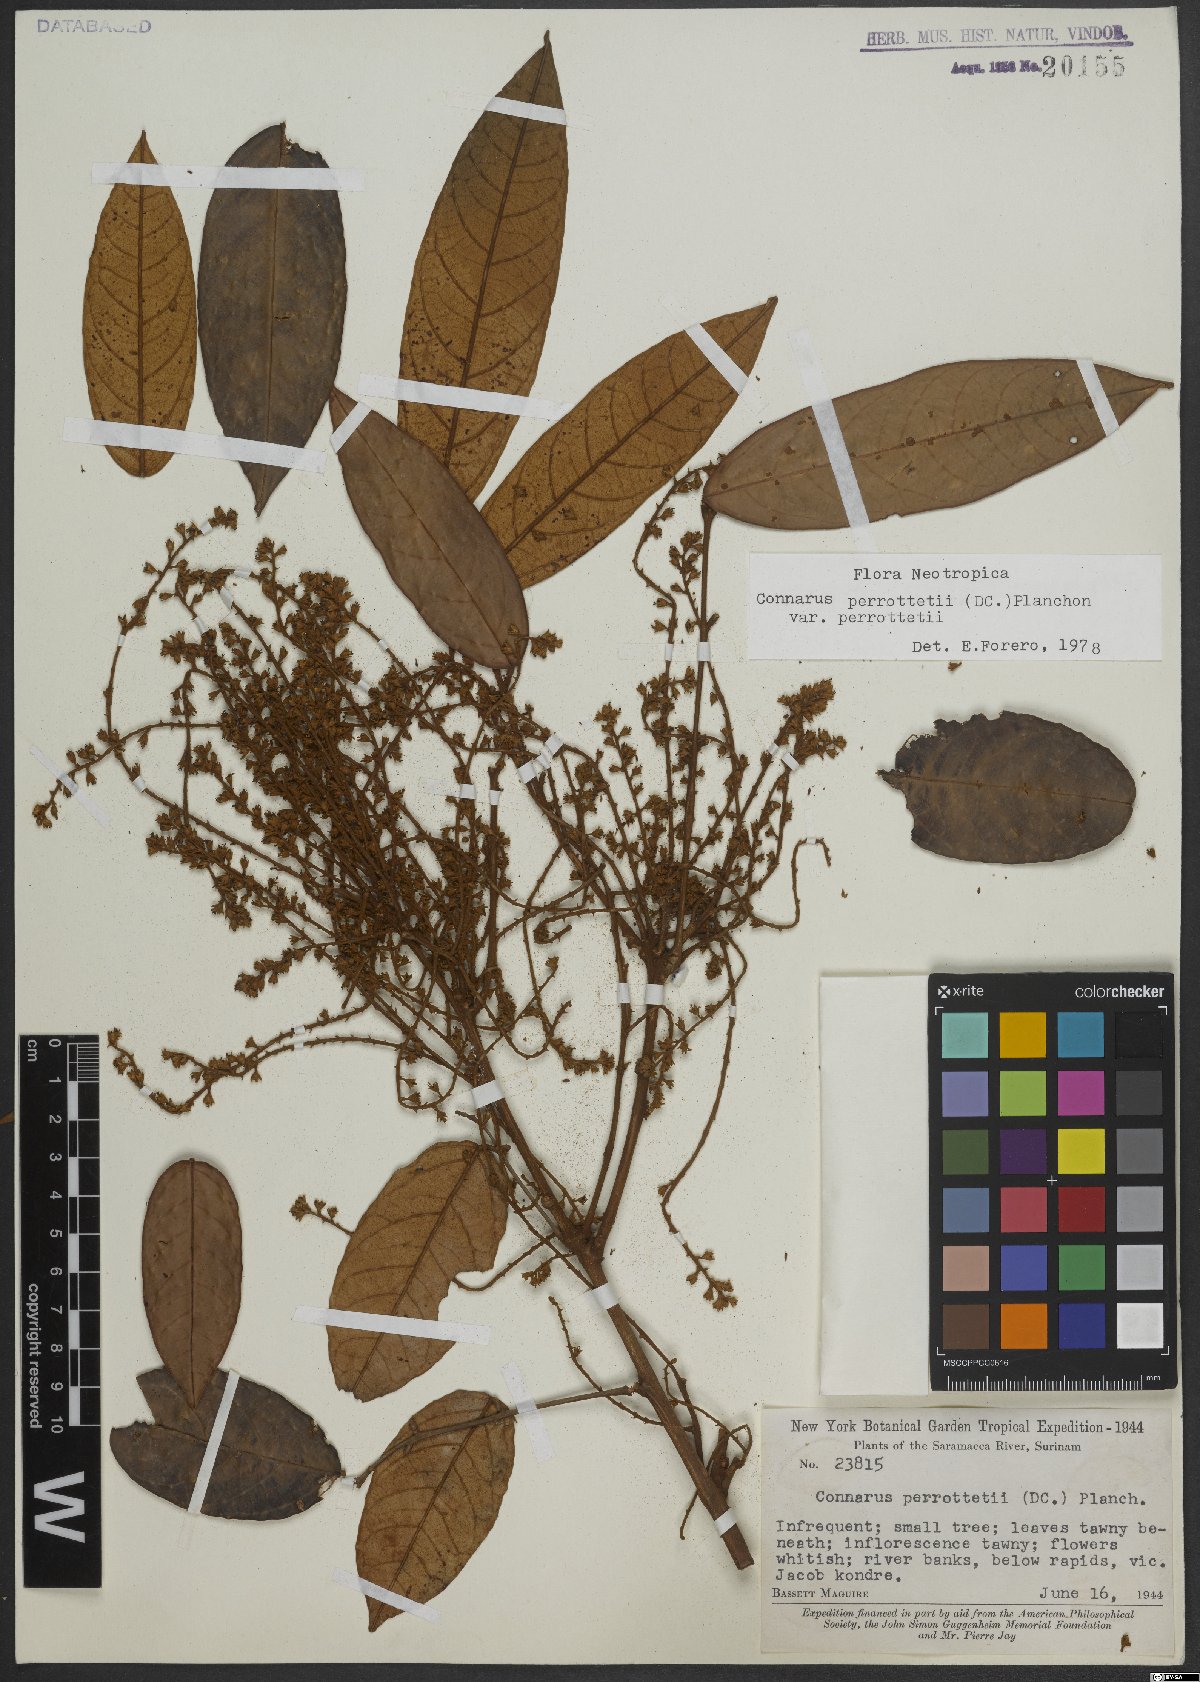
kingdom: Plantae
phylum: Tracheophyta
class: Magnoliopsida
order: Oxalidales
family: Connaraceae
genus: Connarus
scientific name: Connarus perrottetii
